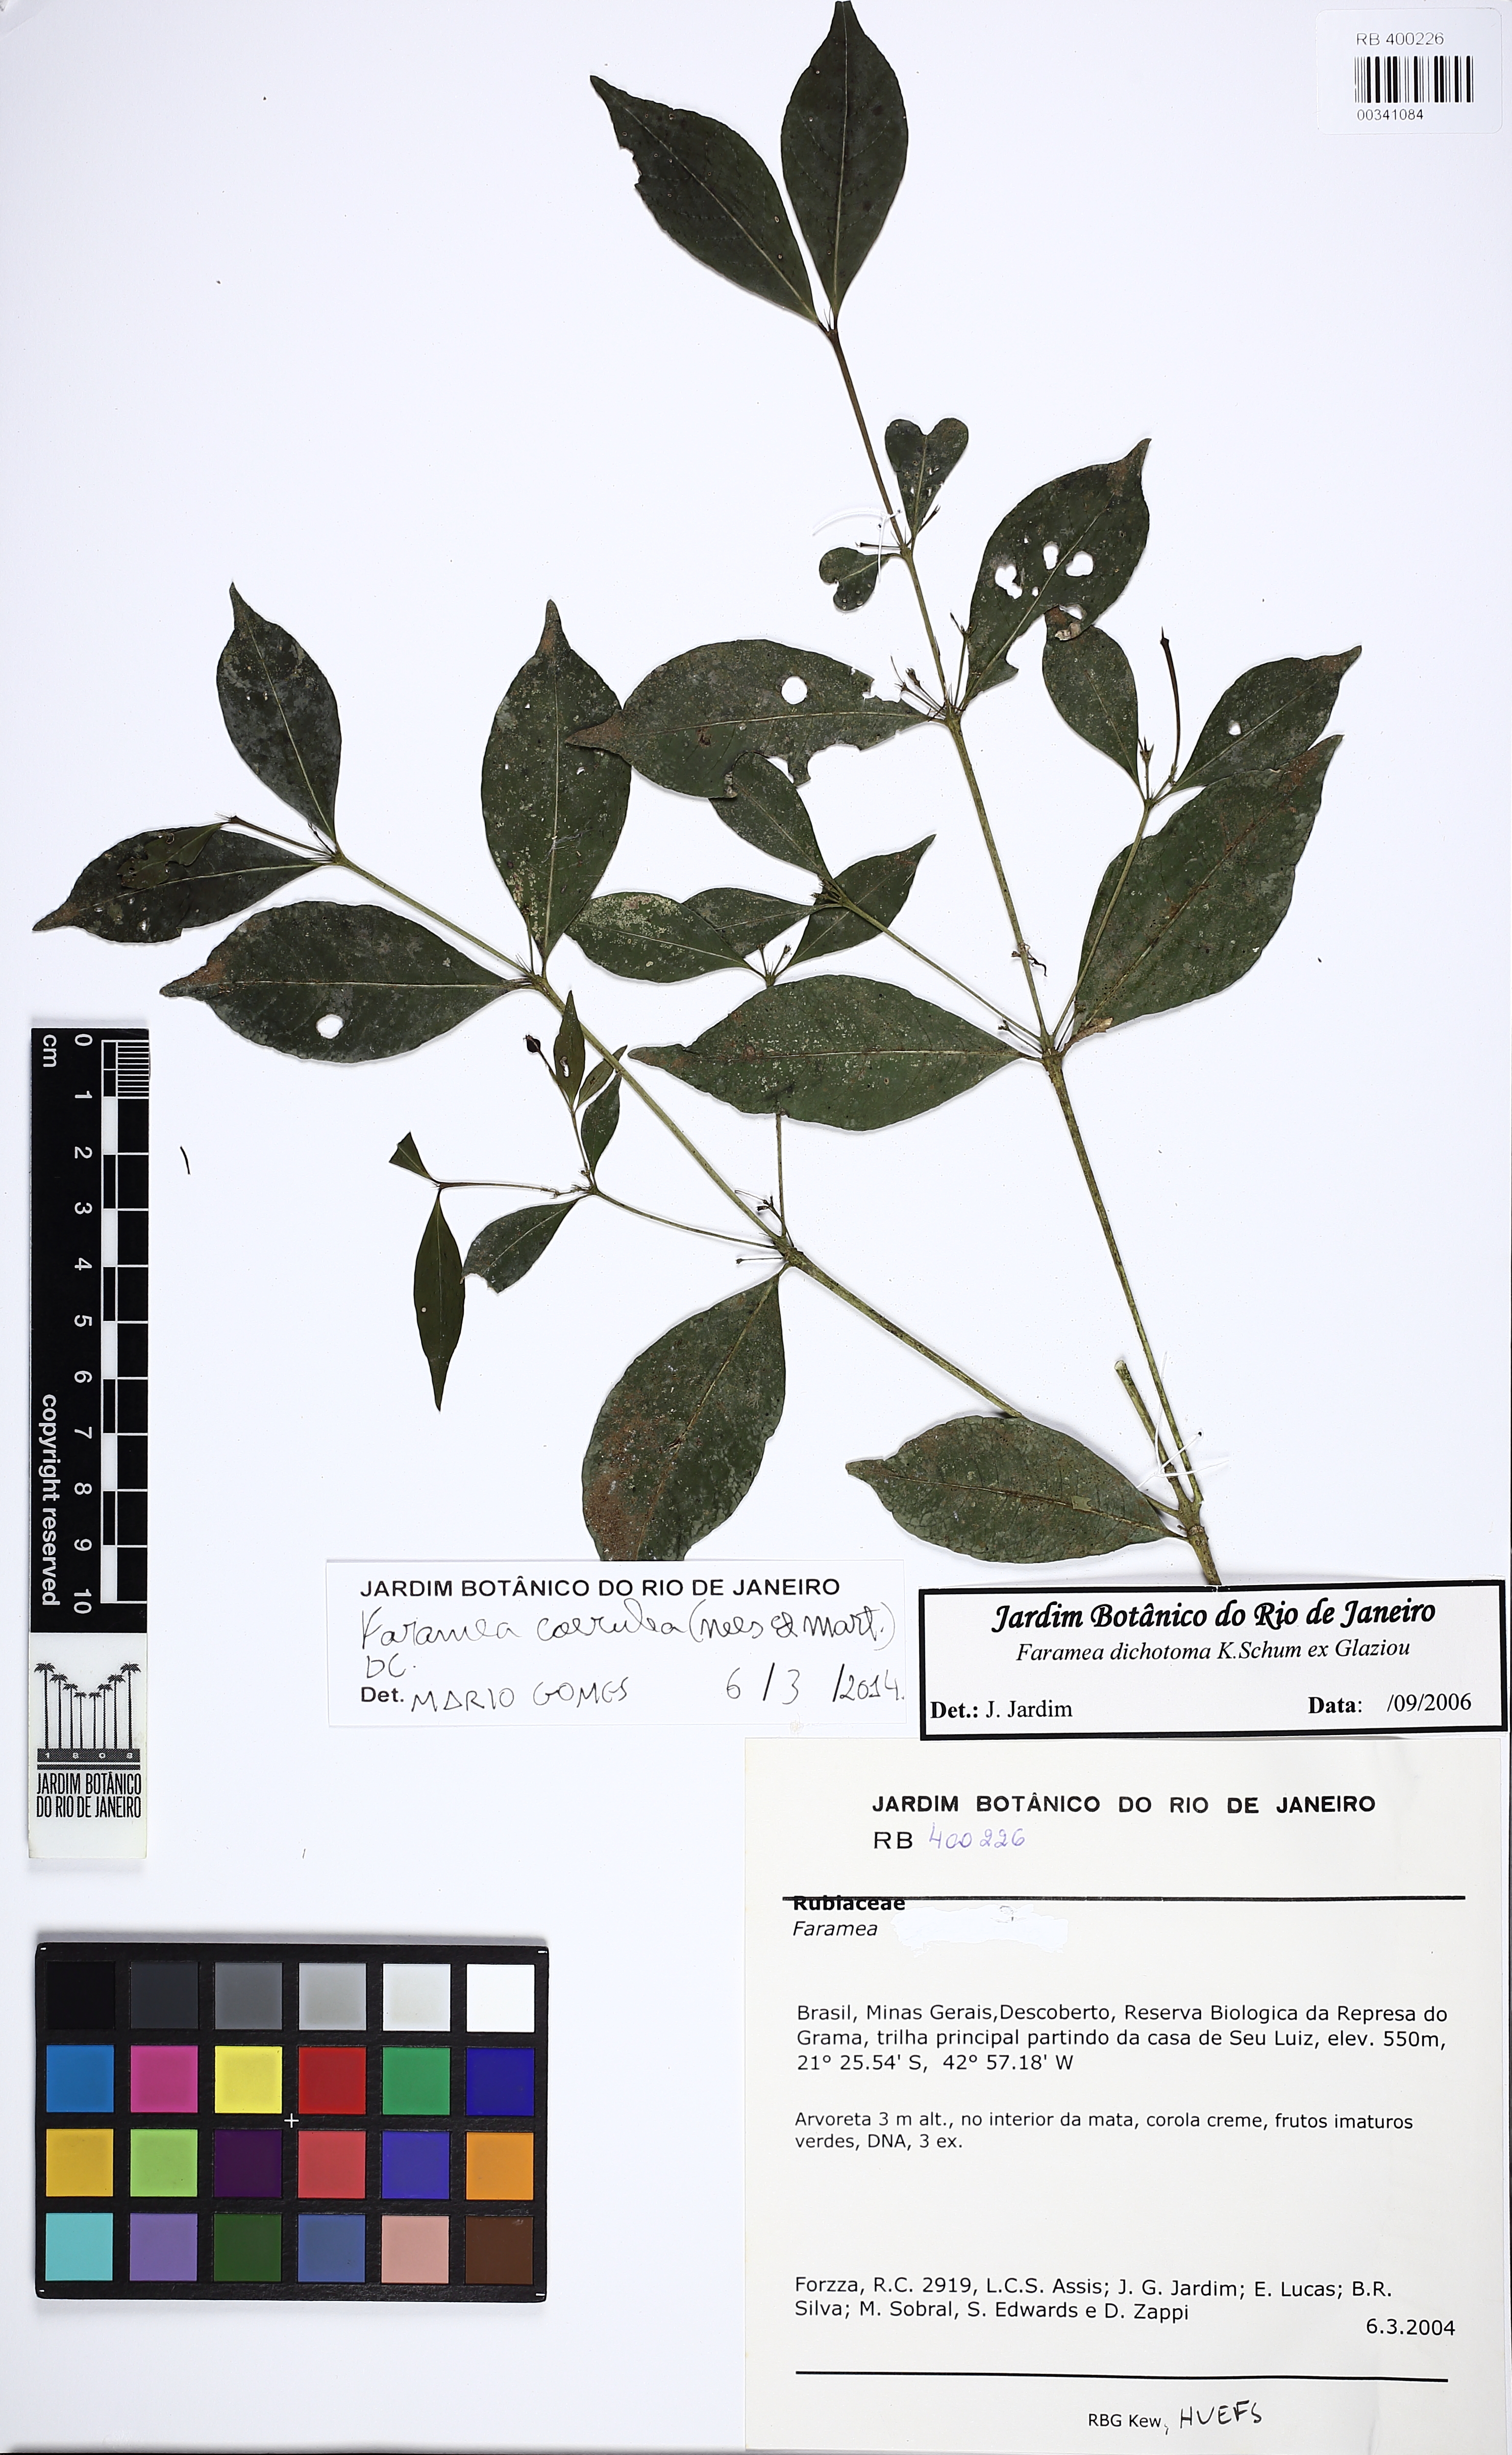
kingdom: Plantae
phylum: Tracheophyta
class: Magnoliopsida
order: Gentianales
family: Rubiaceae
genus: Faramea
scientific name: Faramea coerulea
